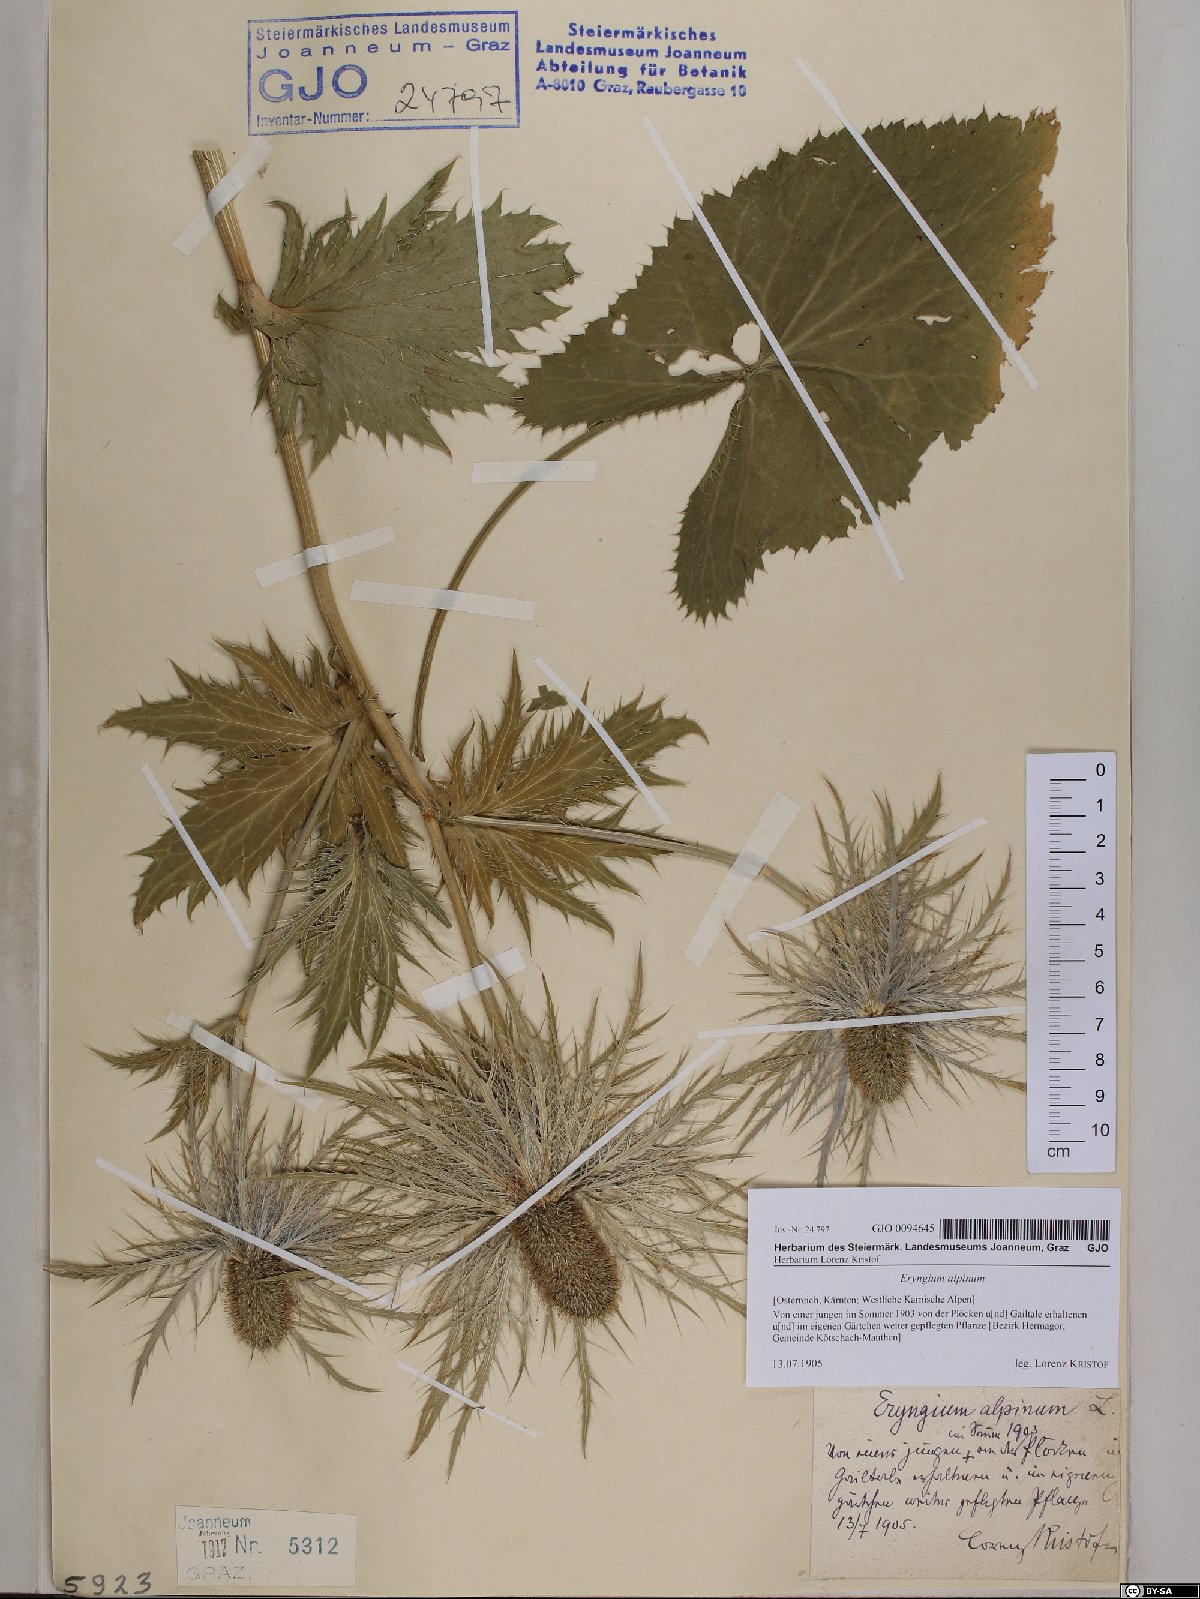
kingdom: Plantae
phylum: Tracheophyta
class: Magnoliopsida
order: Apiales
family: Apiaceae
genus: Eryngium
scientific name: Eryngium alpinum
